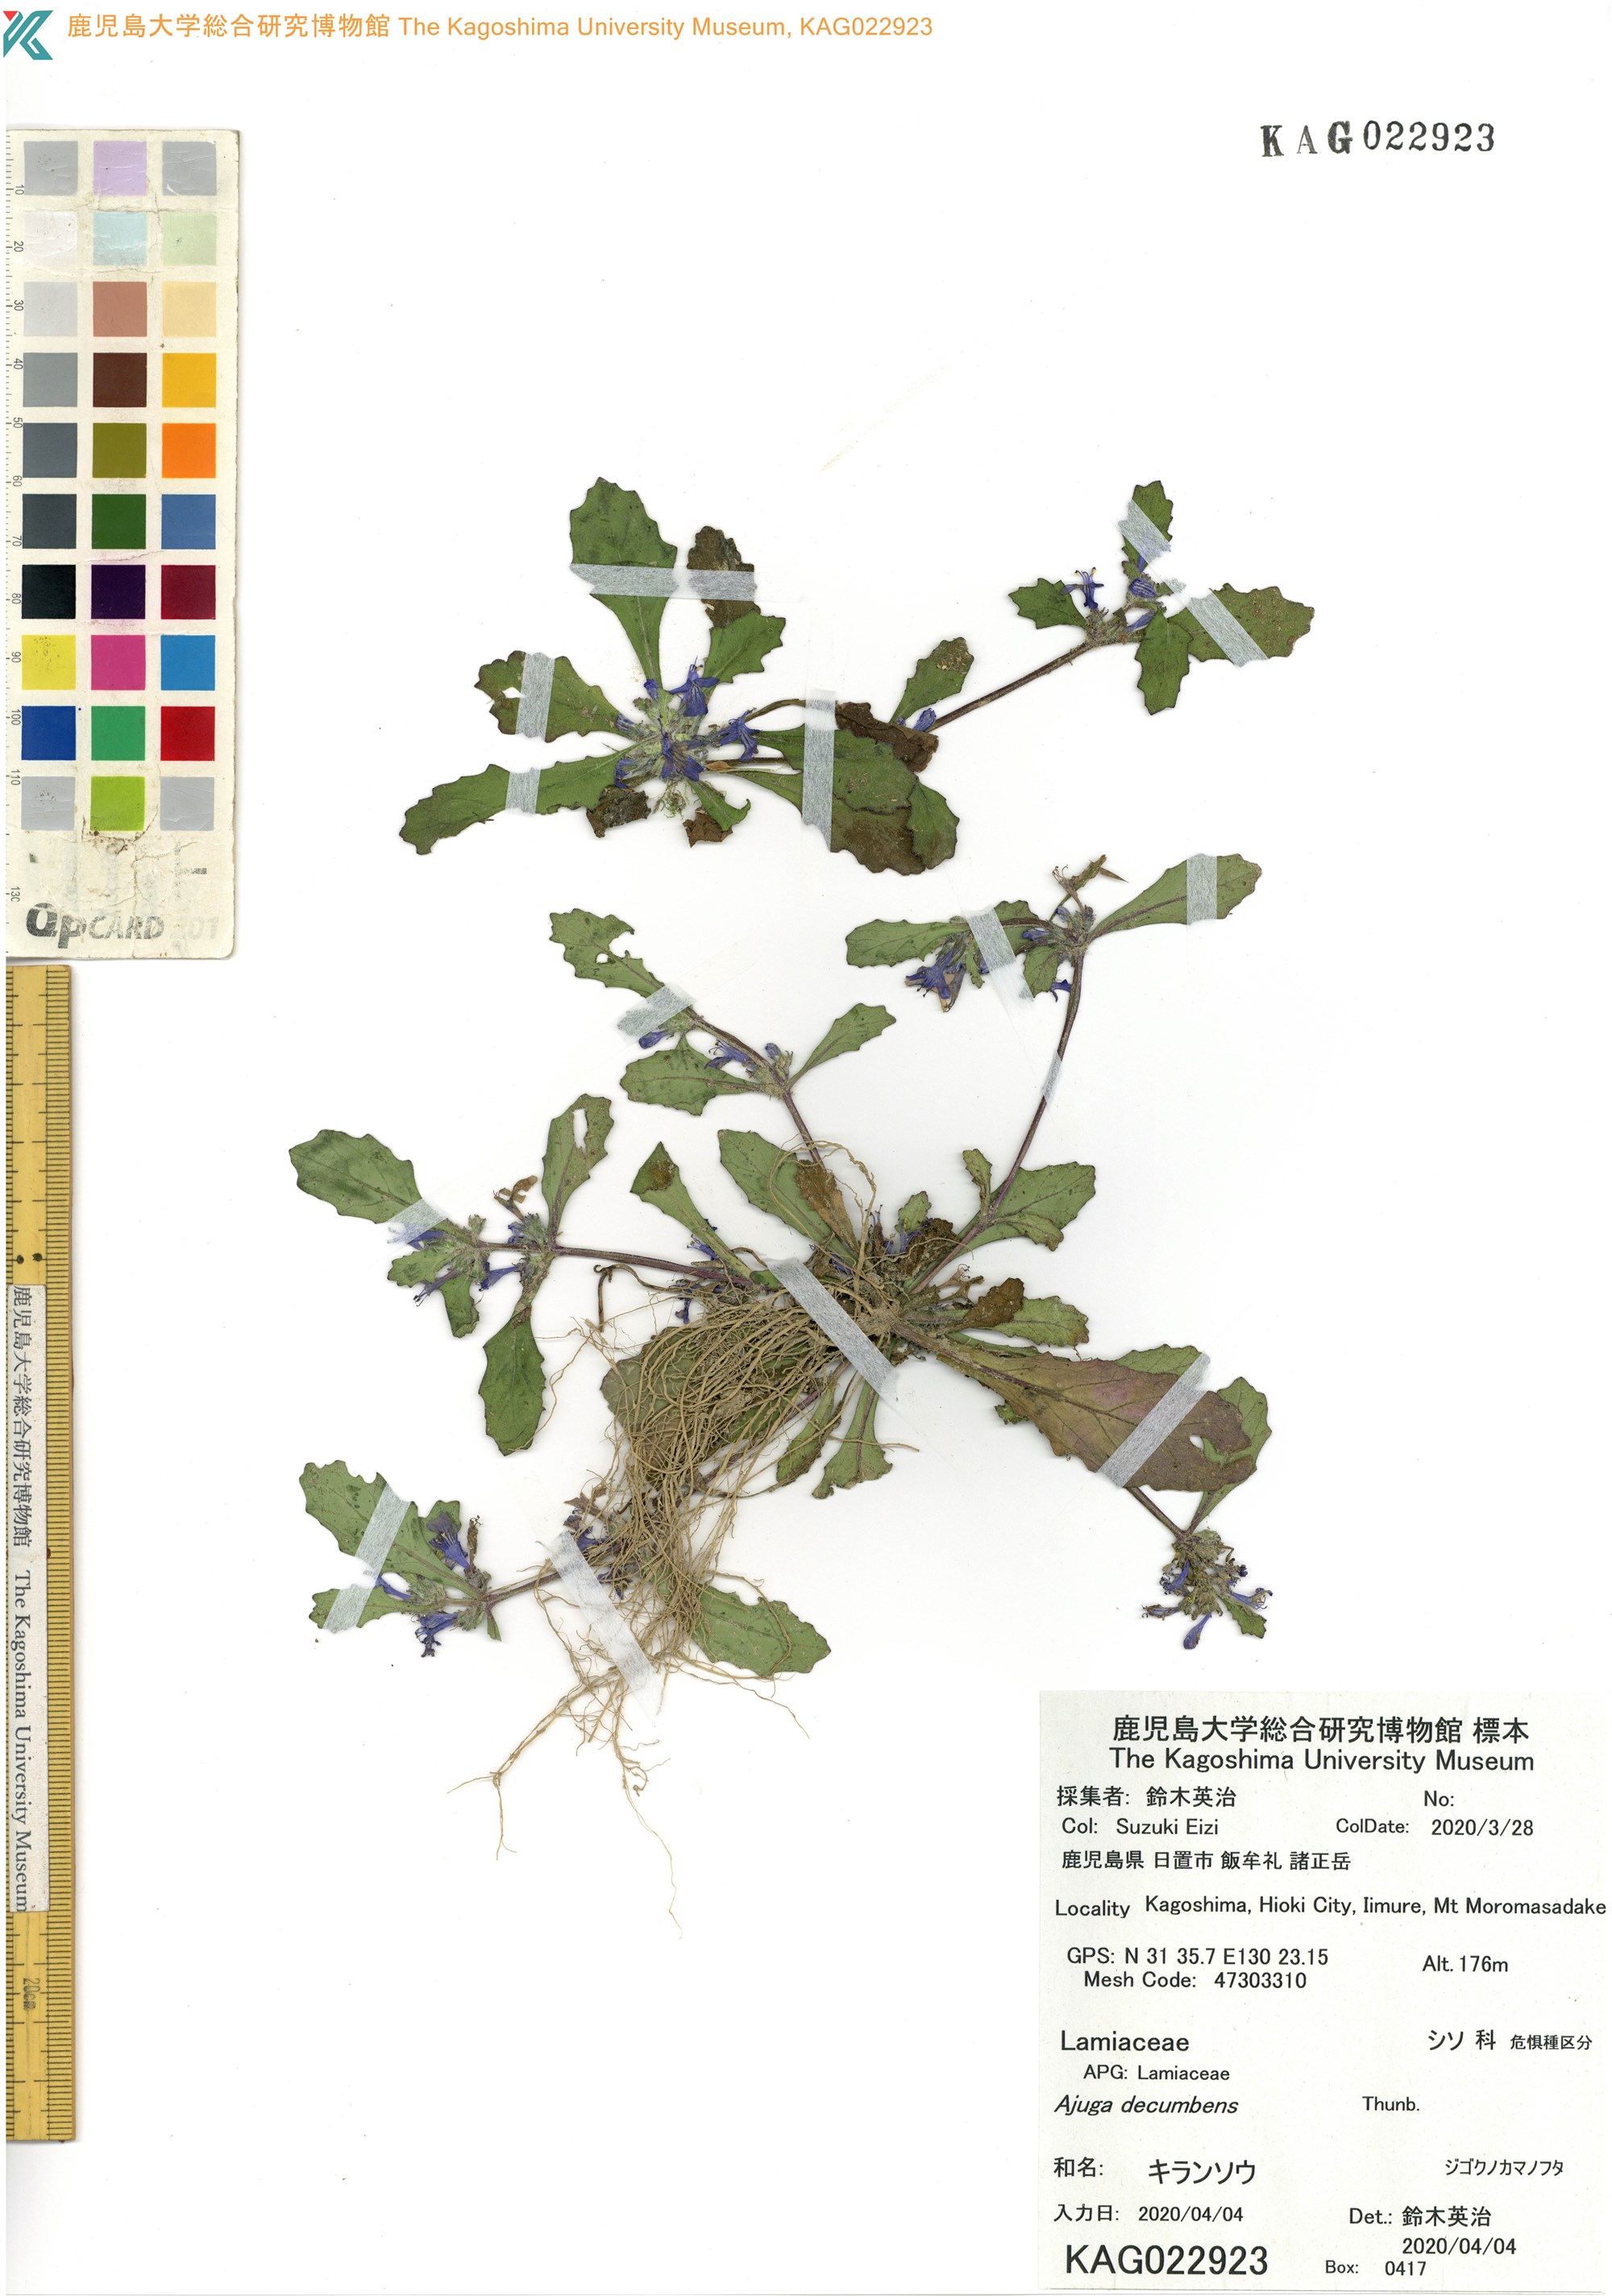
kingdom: Plantae
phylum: Tracheophyta
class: Magnoliopsida
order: Lamiales
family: Lamiaceae
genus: Ajuga
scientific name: Ajuga decumbens
